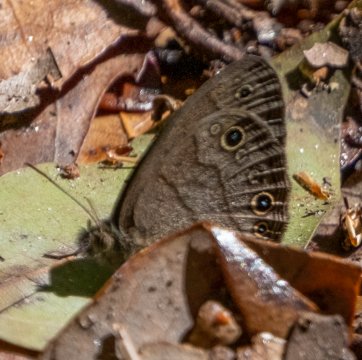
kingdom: Animalia
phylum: Arthropoda
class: Insecta
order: Lepidoptera
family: Nymphalidae
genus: Hermeuptychia
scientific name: Hermeuptychia hermes
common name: Carolina Satyr
